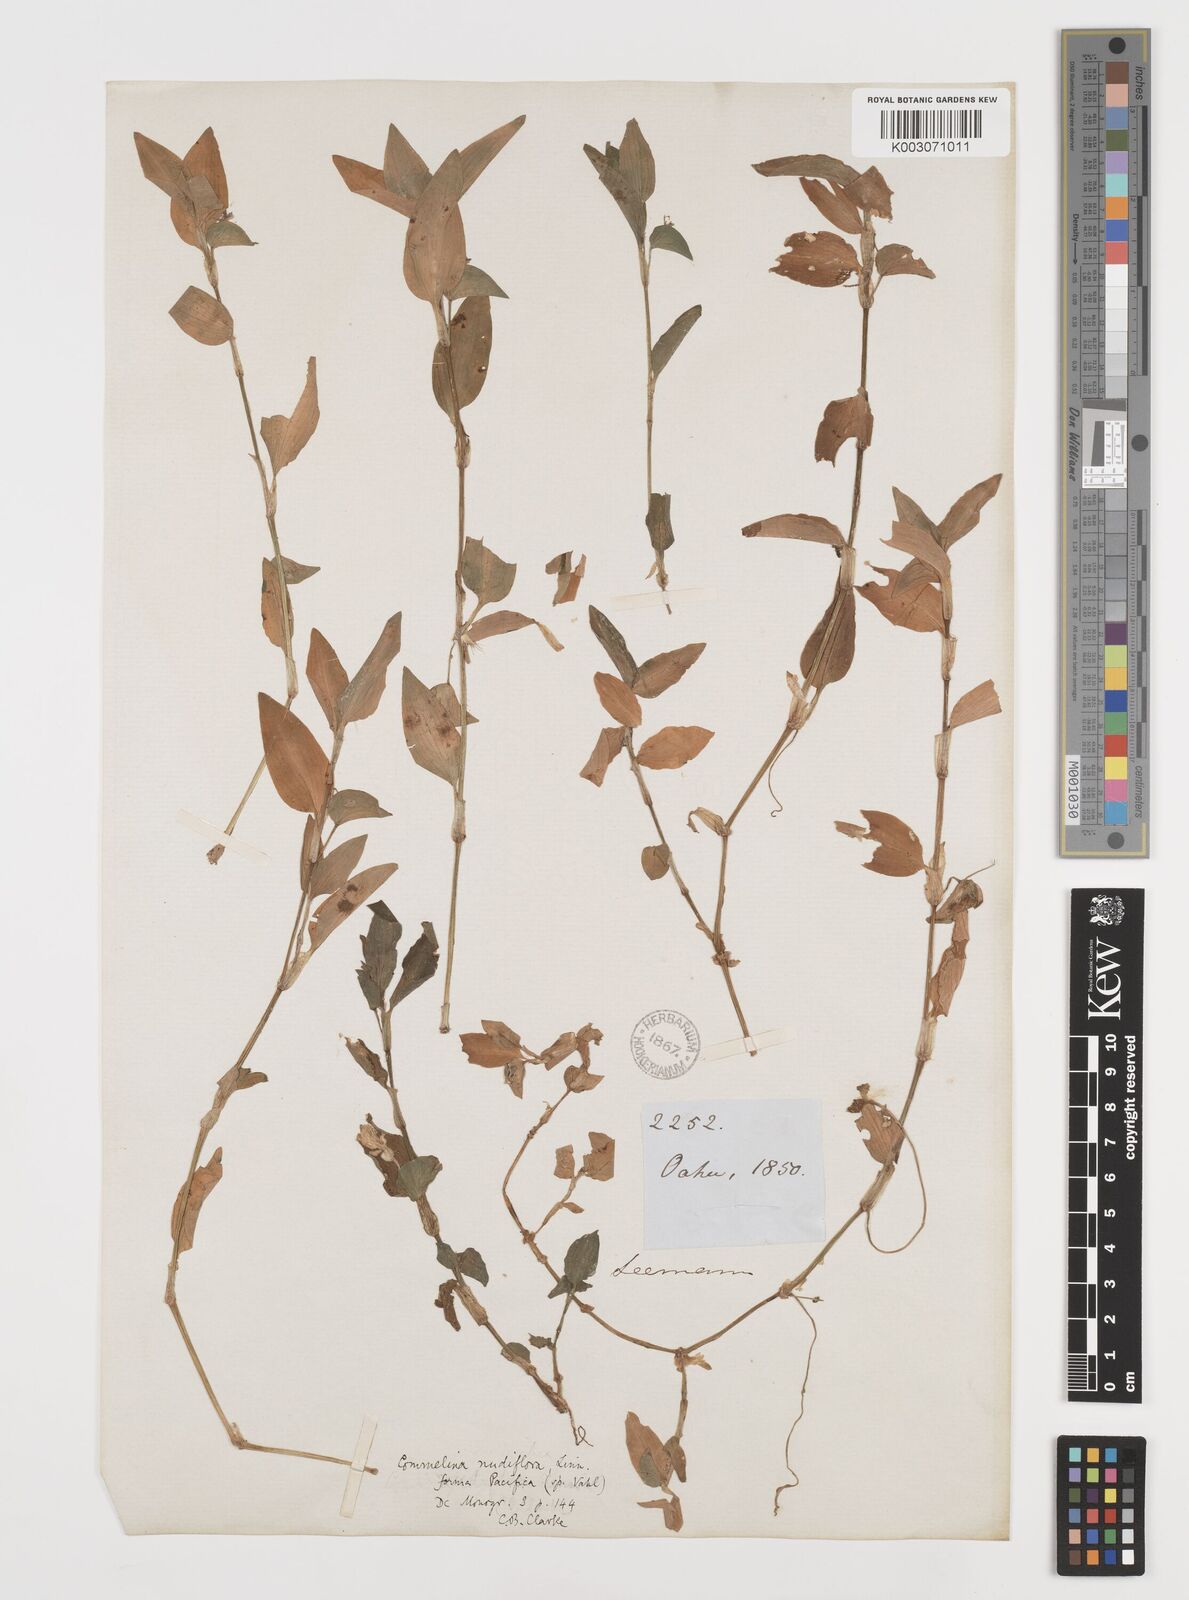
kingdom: Plantae
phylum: Tracheophyta
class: Liliopsida
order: Commelinales
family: Commelinaceae
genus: Murdannia
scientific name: Murdannia nudiflora
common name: Nakedstem dewflower
